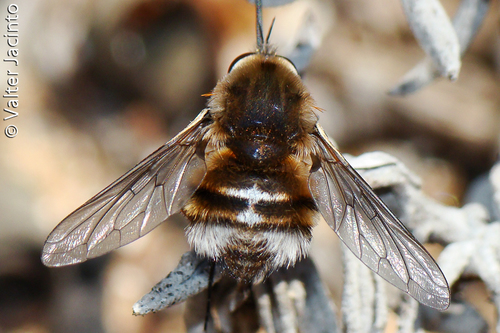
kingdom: Animalia
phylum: Arthropoda
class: Insecta
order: Diptera
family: Bombyliidae
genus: Bombylius
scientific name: Bombylius cruciatus
